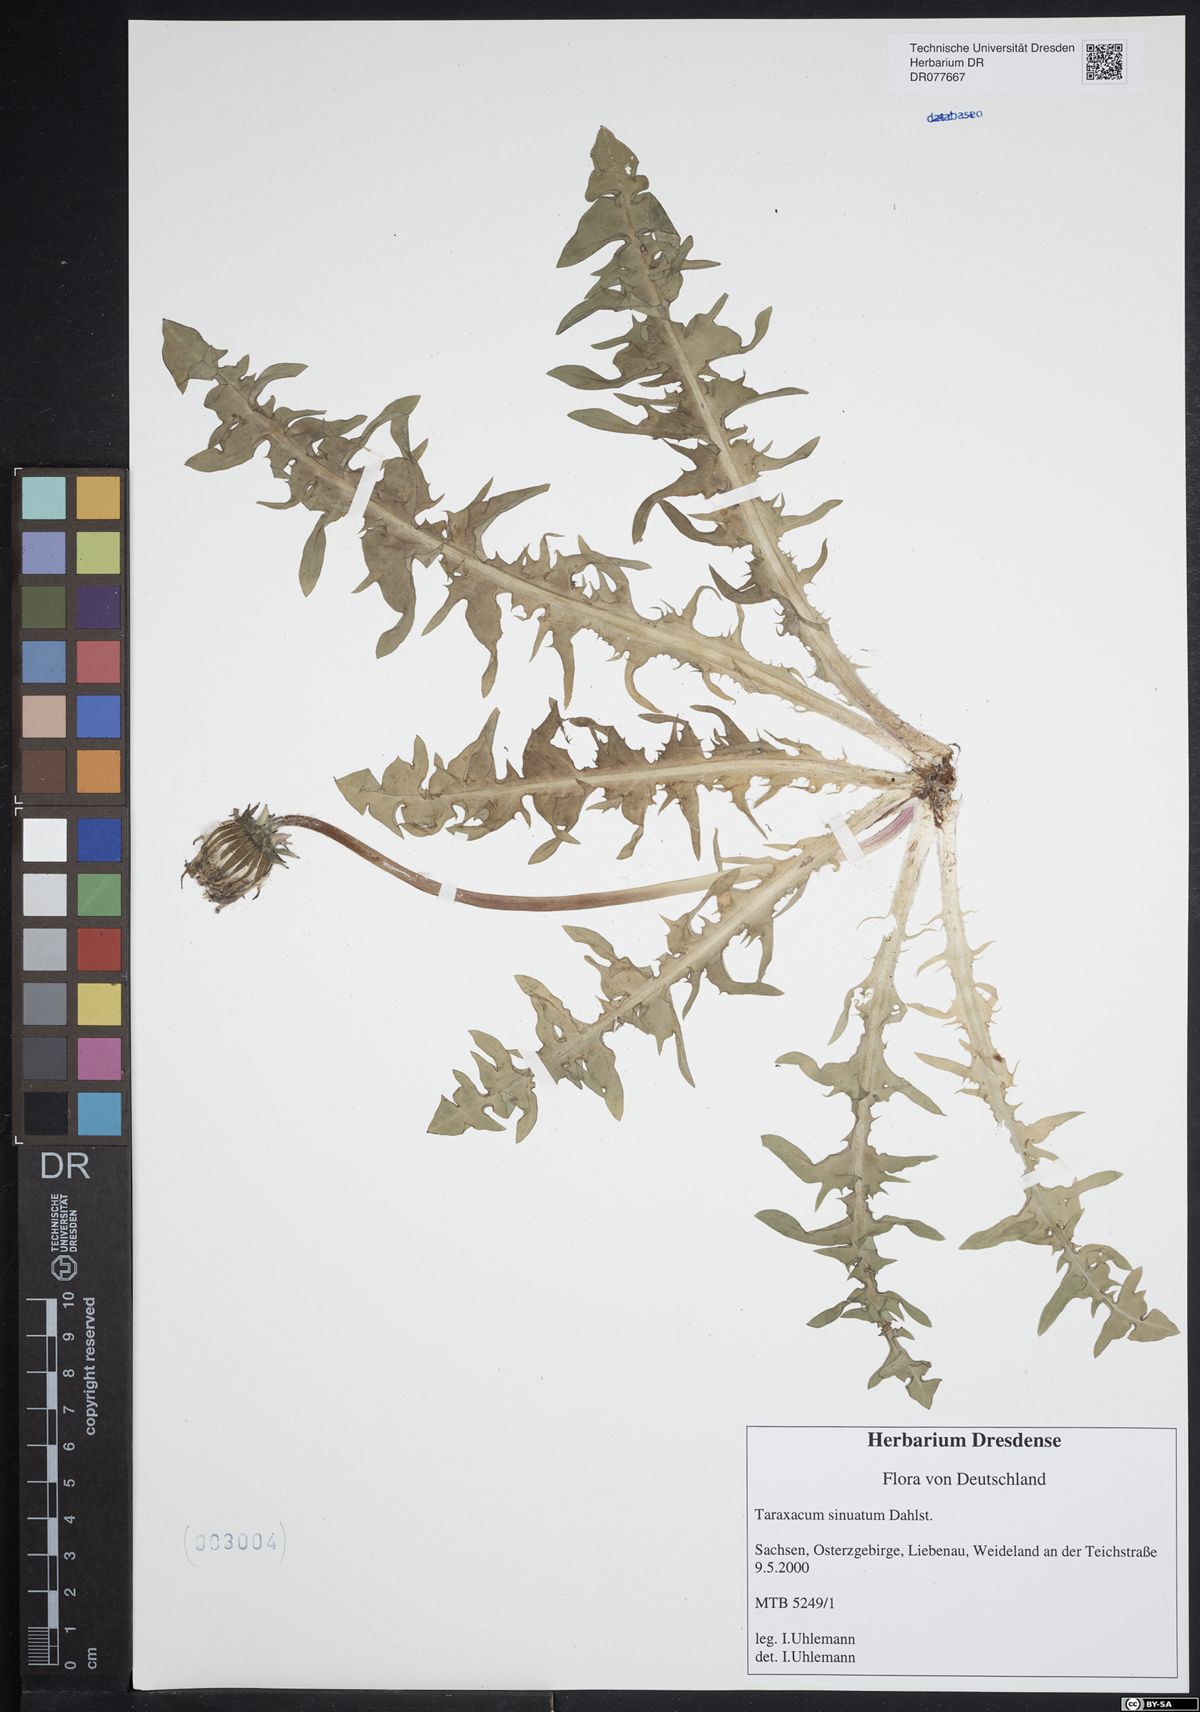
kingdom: Plantae
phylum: Tracheophyta
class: Magnoliopsida
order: Asterales
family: Asteraceae
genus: Taraxacum
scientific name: Taraxacum sinuatum
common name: Sinuate-lobed dandelion
